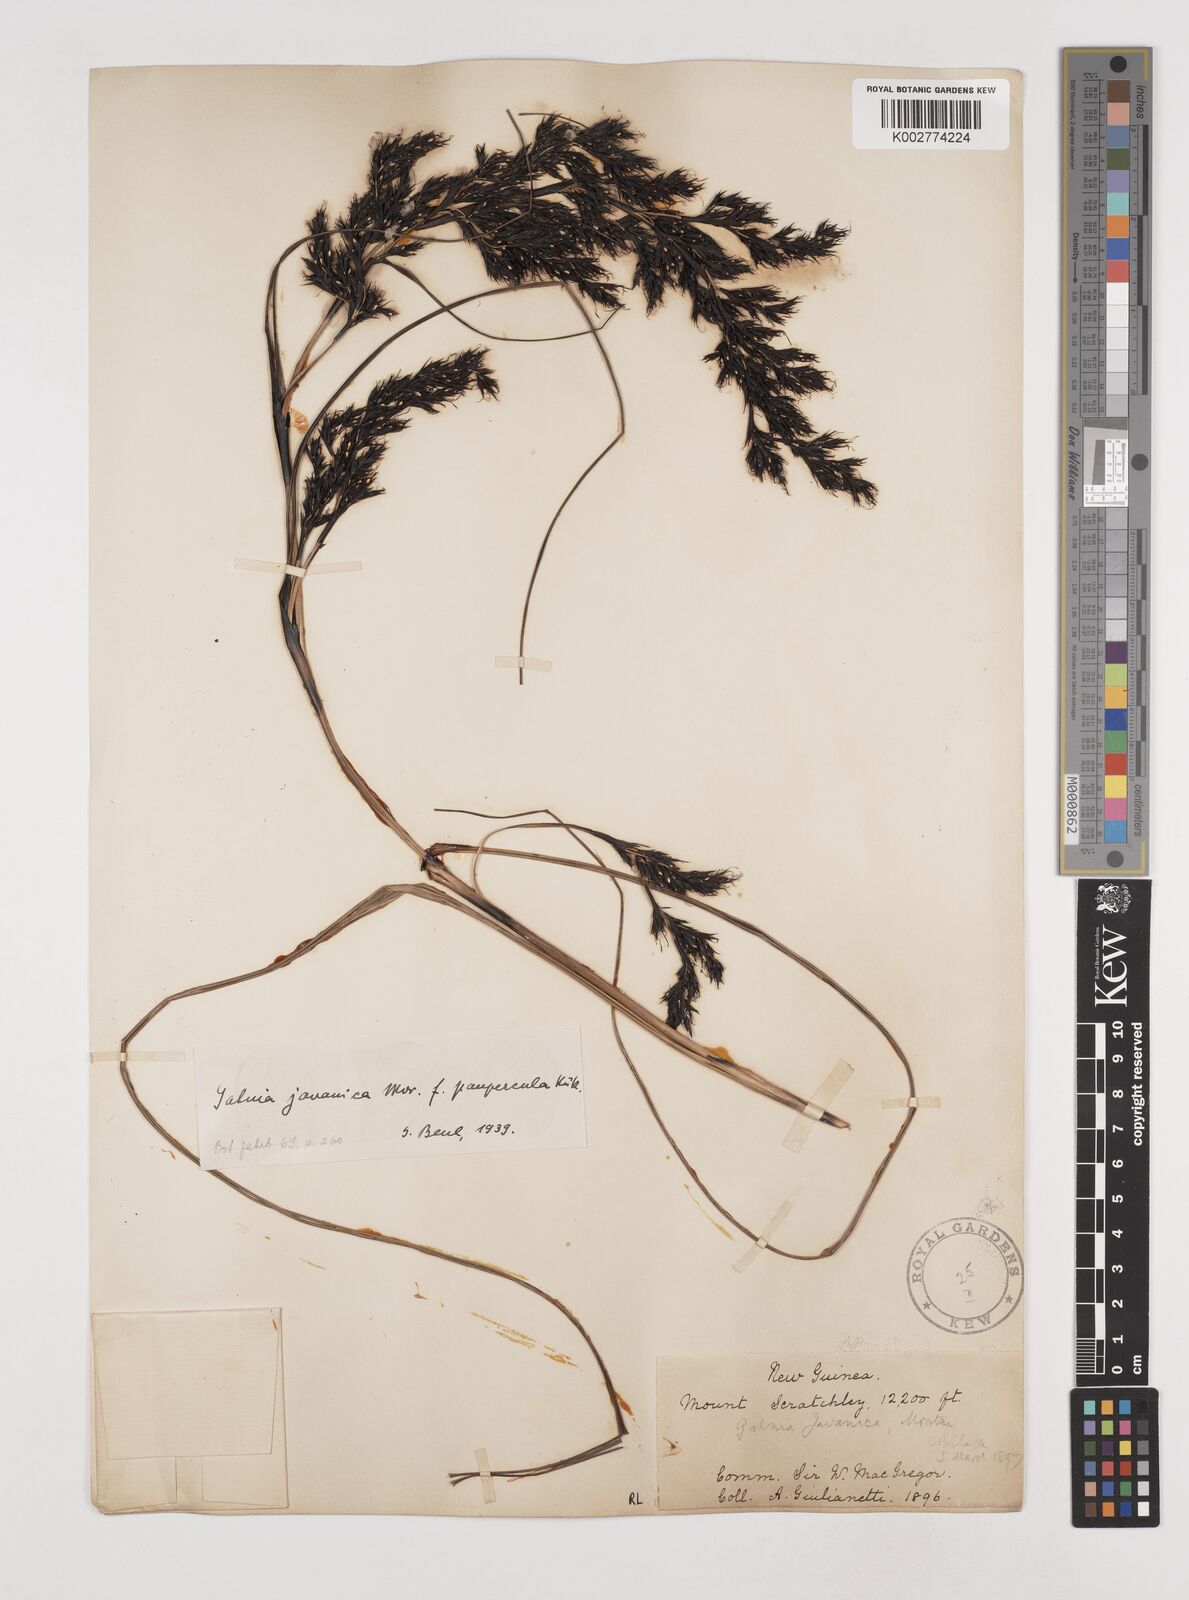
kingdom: Plantae
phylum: Tracheophyta
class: Liliopsida
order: Poales
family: Cyperaceae
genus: Gahnia
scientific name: Gahnia javanica
